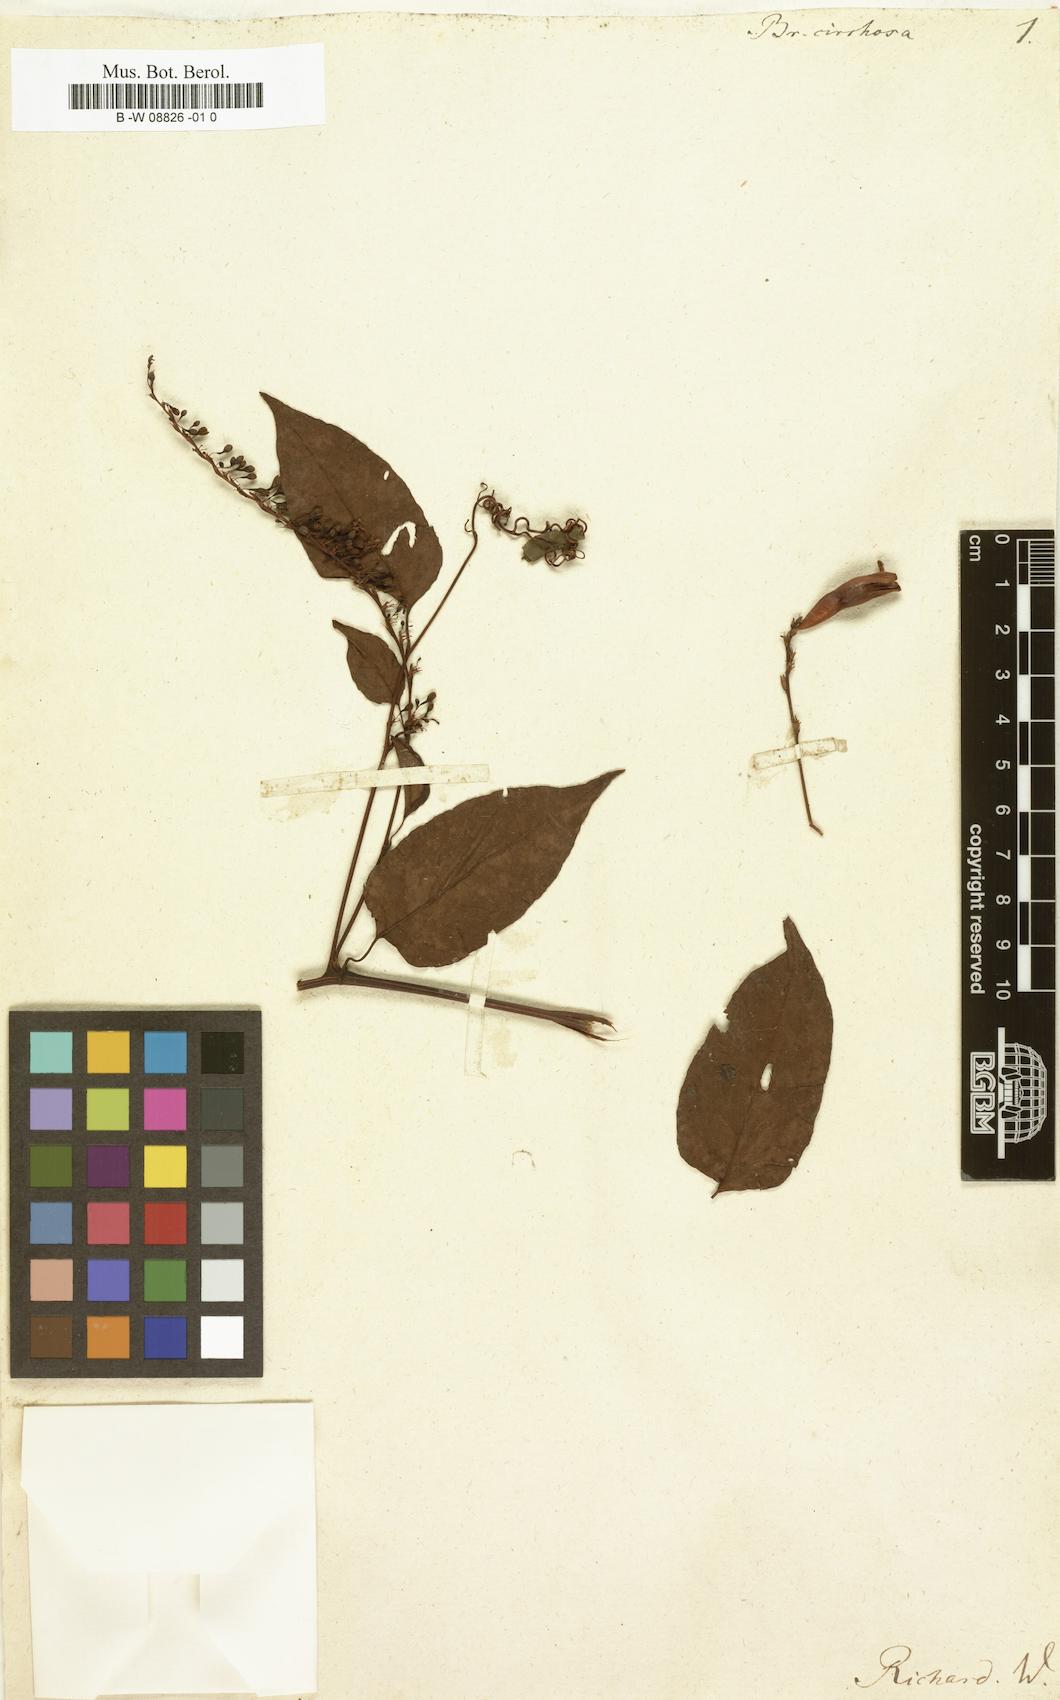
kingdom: Plantae
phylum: Tracheophyta
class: Magnoliopsida
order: Caryophyllales
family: Polygonaceae
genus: Brunnichia
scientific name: Brunnichia ovata
